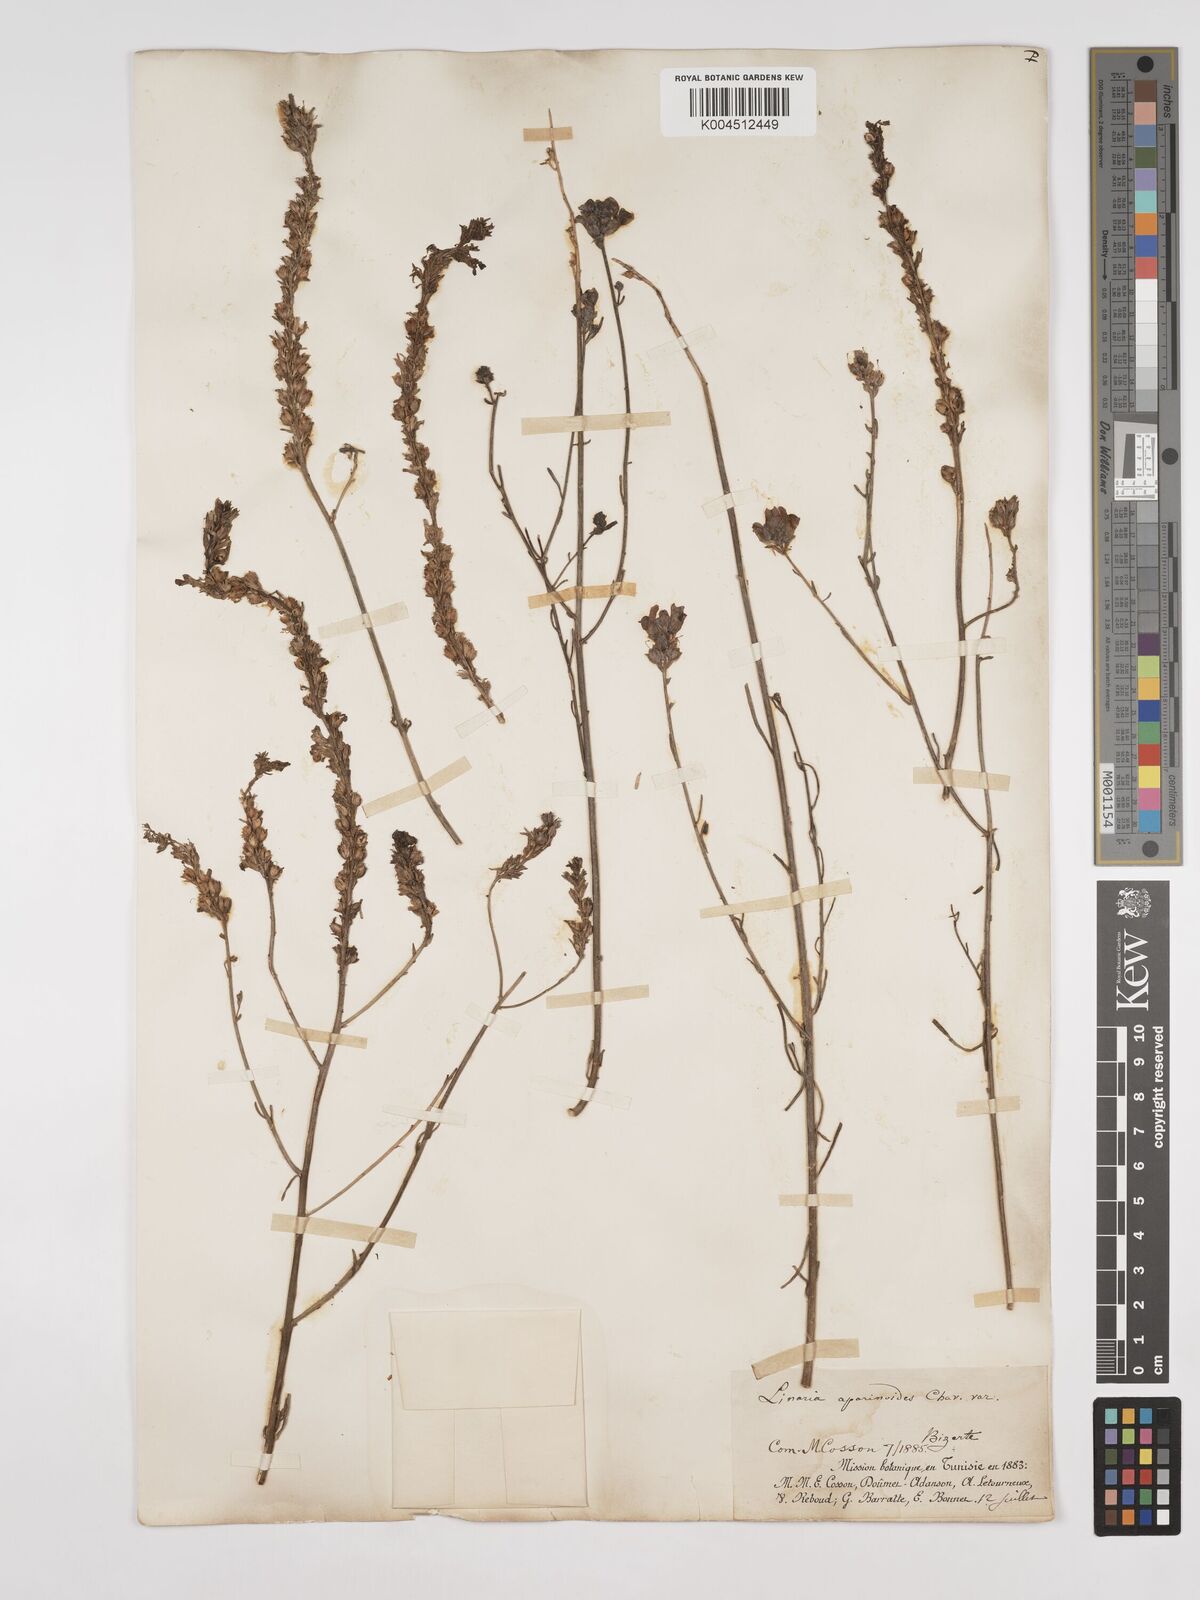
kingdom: Plantae
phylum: Tracheophyta
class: Magnoliopsida
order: Lamiales
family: Plantaginaceae
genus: Linaria
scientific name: Linaria multicaulis
